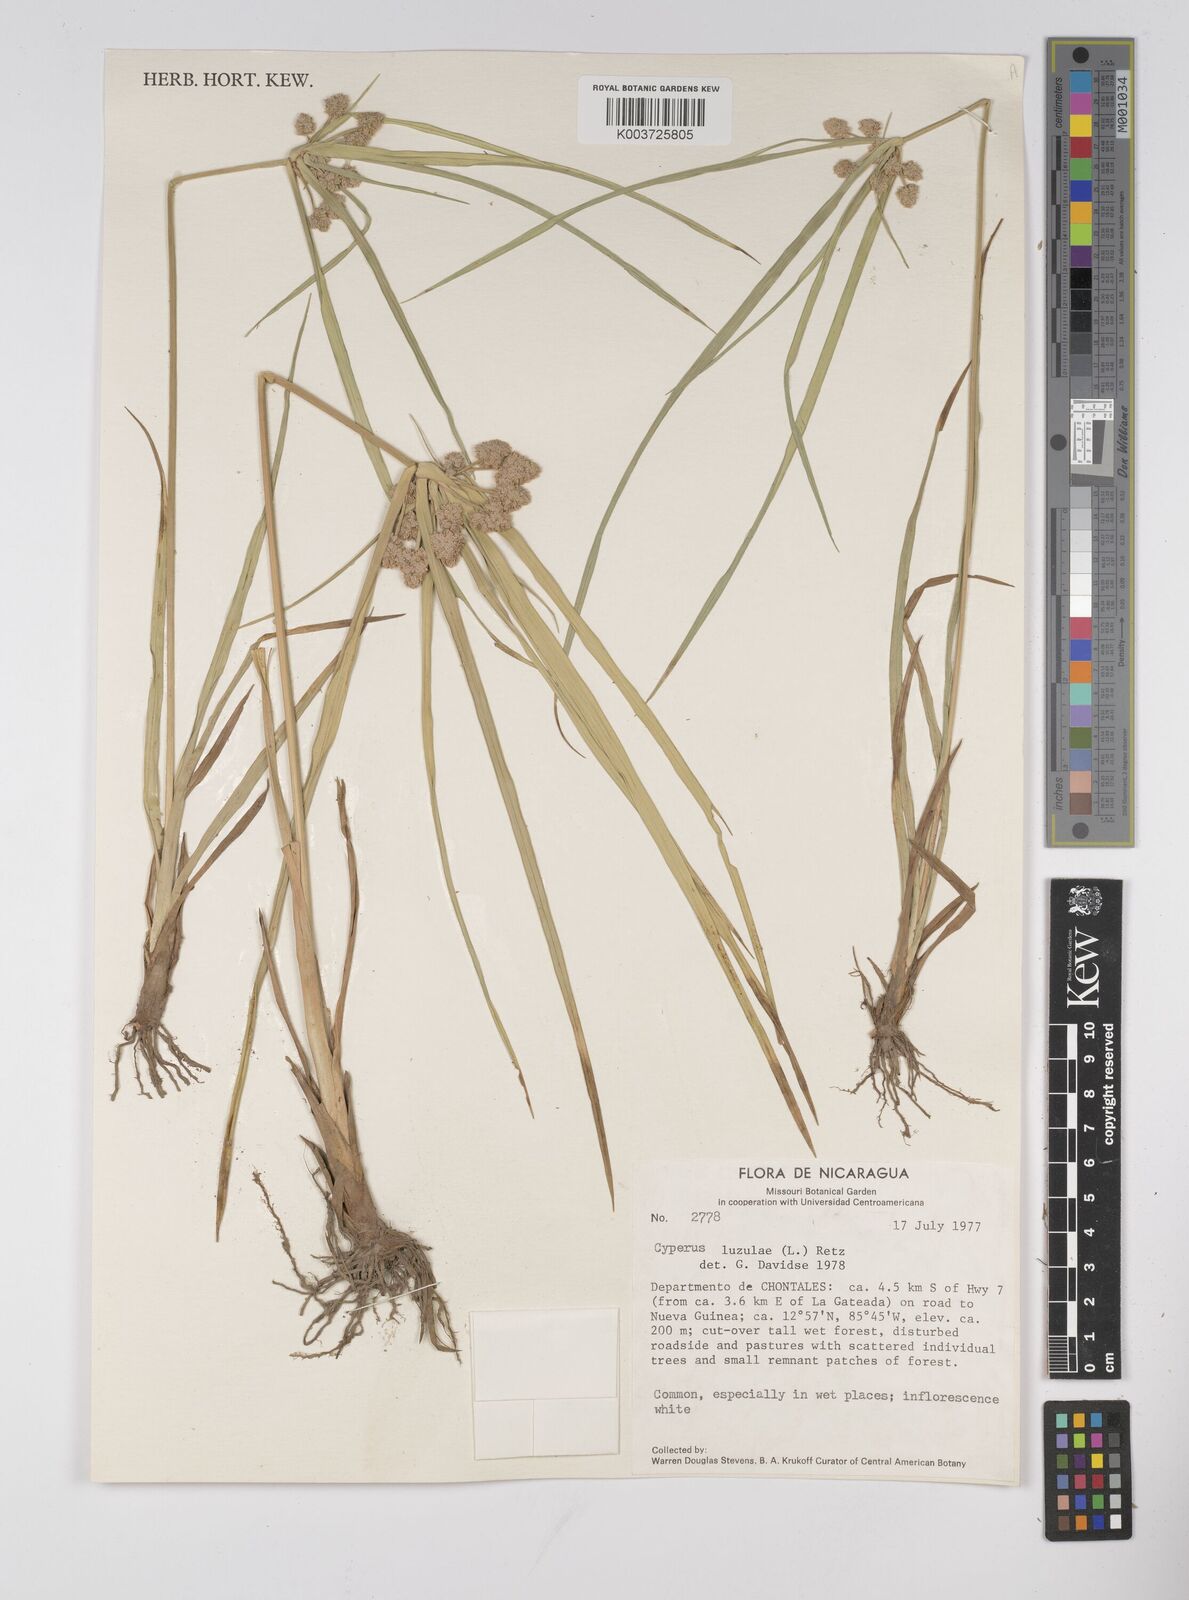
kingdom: Plantae
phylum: Tracheophyta
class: Liliopsida
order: Poales
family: Cyperaceae
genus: Cyperus
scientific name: Cyperus luzulae
